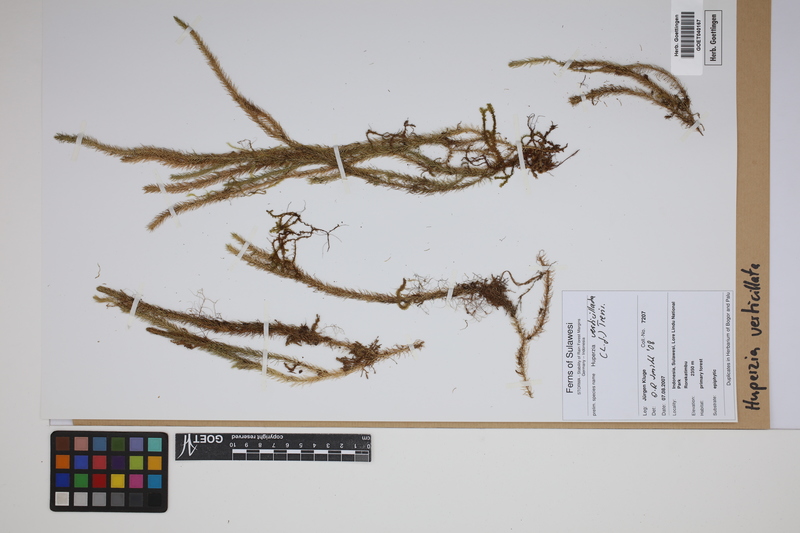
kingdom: Plantae
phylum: Tracheophyta
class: Lycopodiopsida
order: Lycopodiales
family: Lycopodiaceae
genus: Phlegmariurus
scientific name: Phlegmariurus verticillatus
